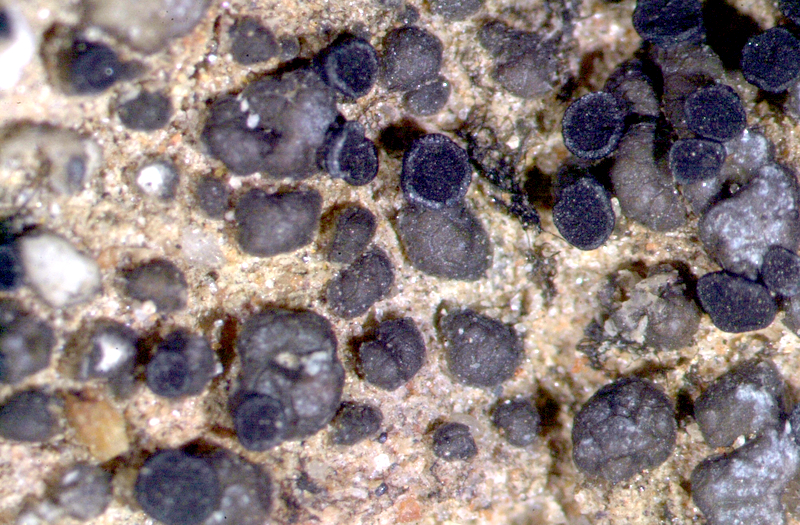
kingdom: Fungi
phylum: Ascomycota
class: Lecanoromycetes
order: Lecanorales
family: Ramalinaceae
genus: Bibbya
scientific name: Bibbya australis
